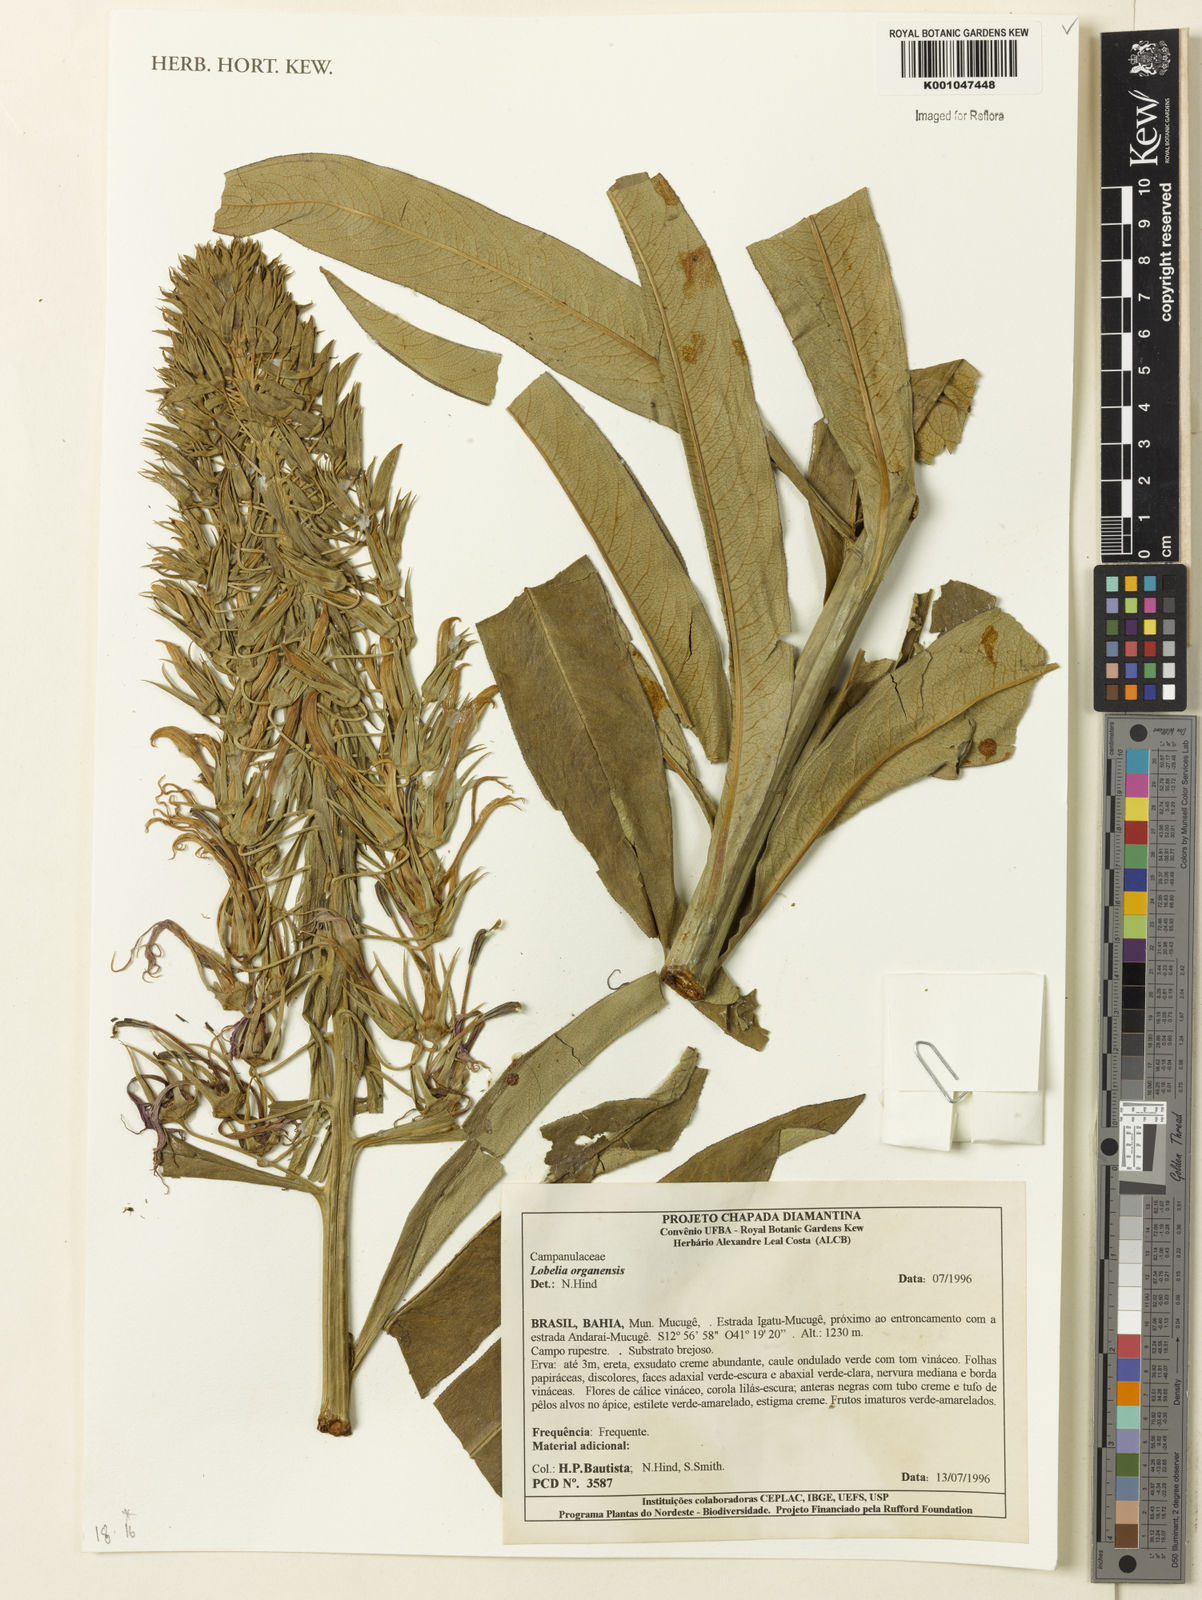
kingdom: Plantae
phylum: Tracheophyta
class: Magnoliopsida
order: Asterales
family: Campanulaceae
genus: Lobelia
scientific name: Lobelia organensis
